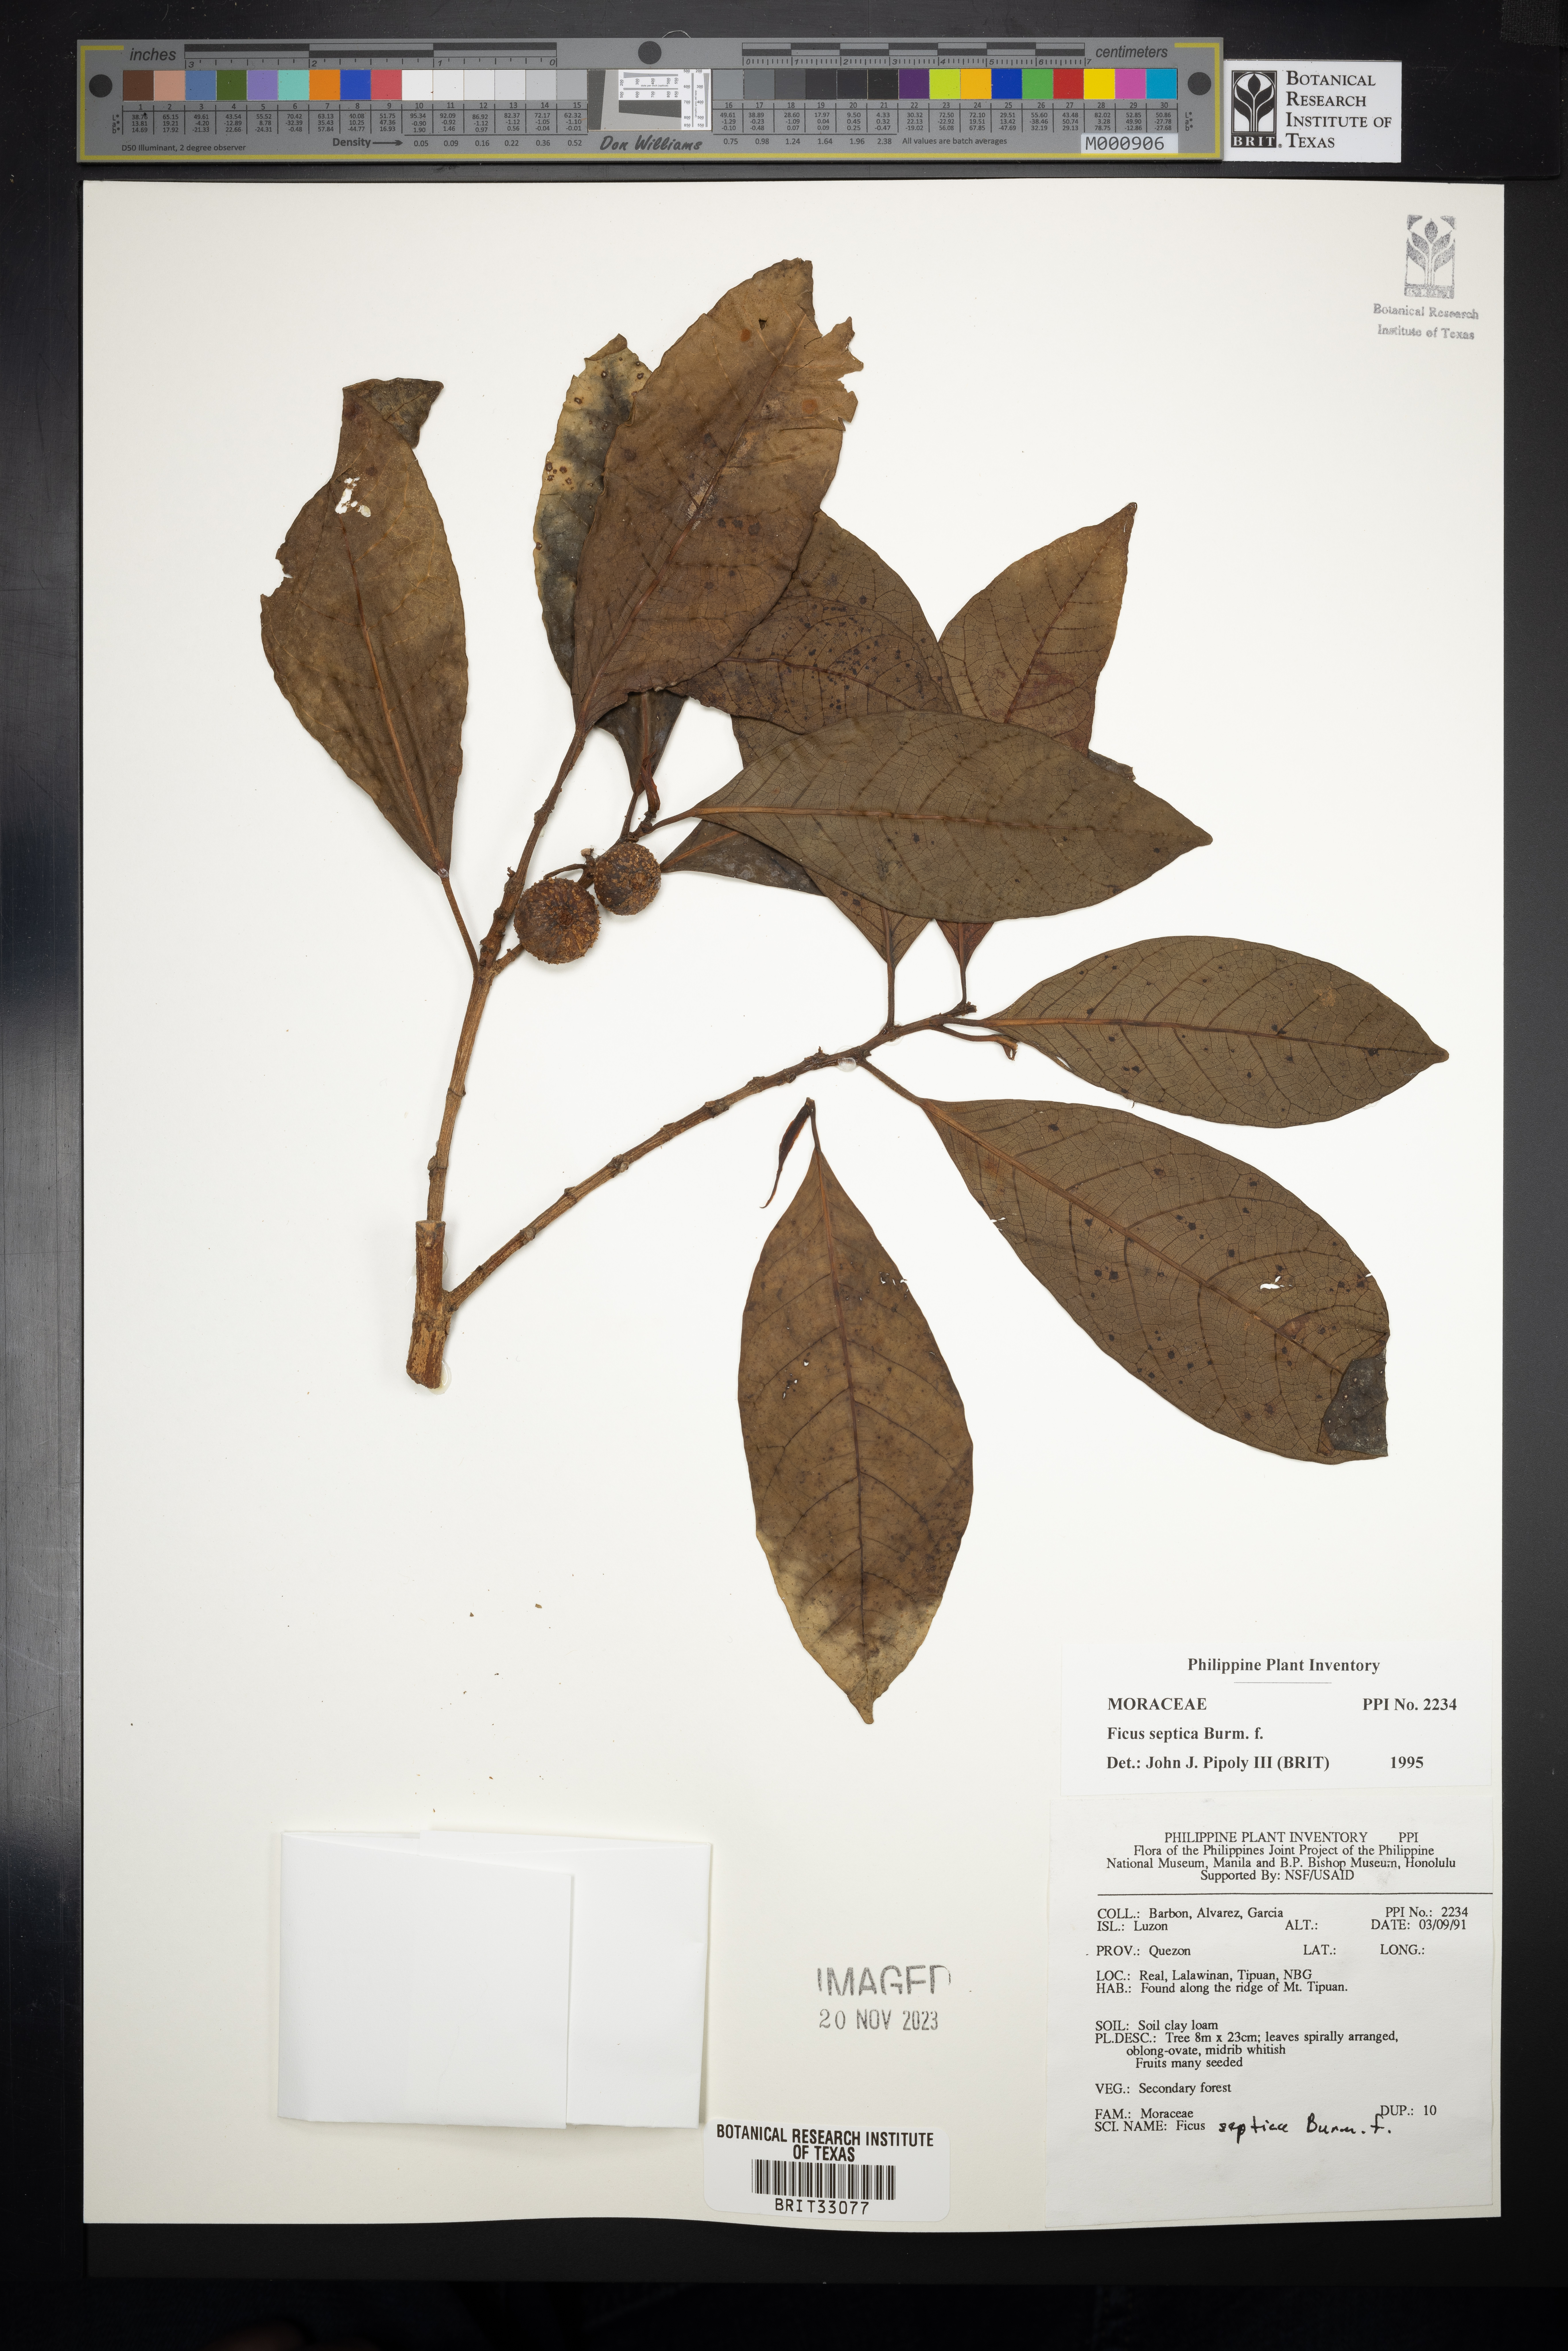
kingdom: Plantae
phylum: Tracheophyta
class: Magnoliopsida
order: Rosales
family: Moraceae
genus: Ficus
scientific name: Ficus septica
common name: Septic fig
